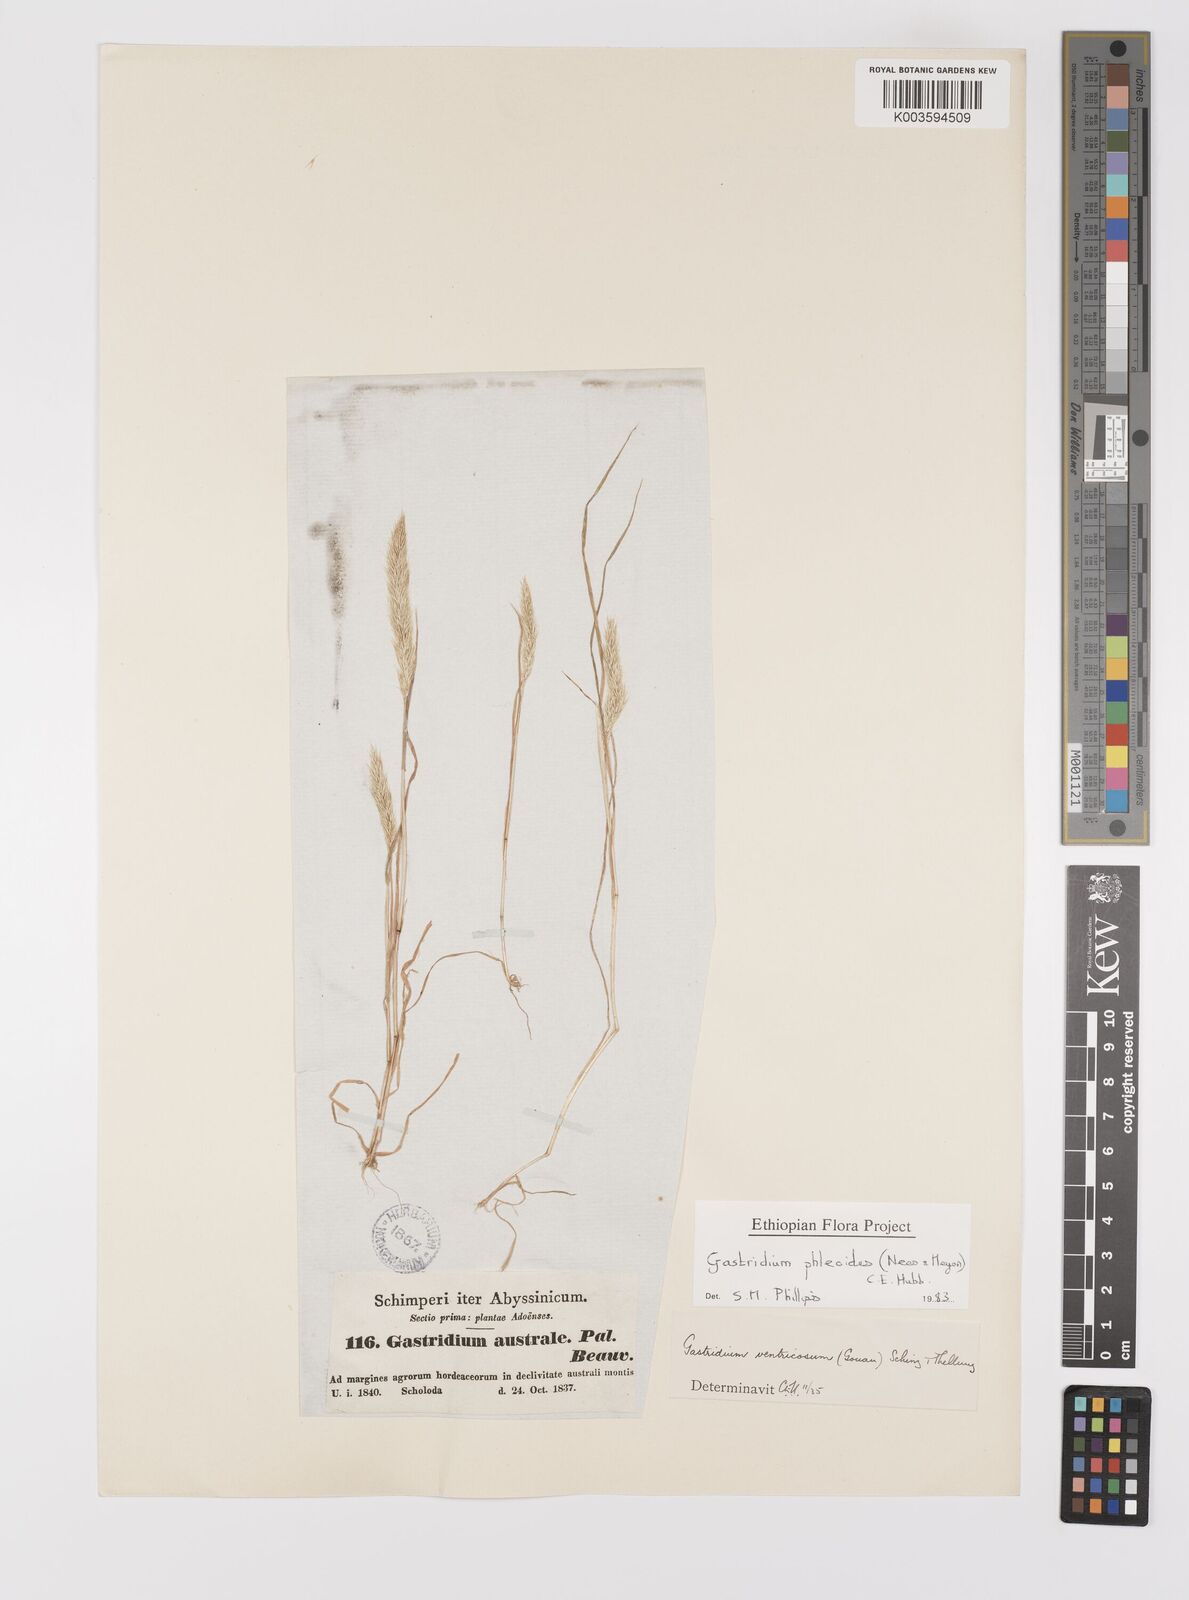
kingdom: Plantae
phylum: Tracheophyta
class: Liliopsida
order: Poales
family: Poaceae
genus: Gastridium
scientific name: Gastridium phleoides
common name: Nit grass
